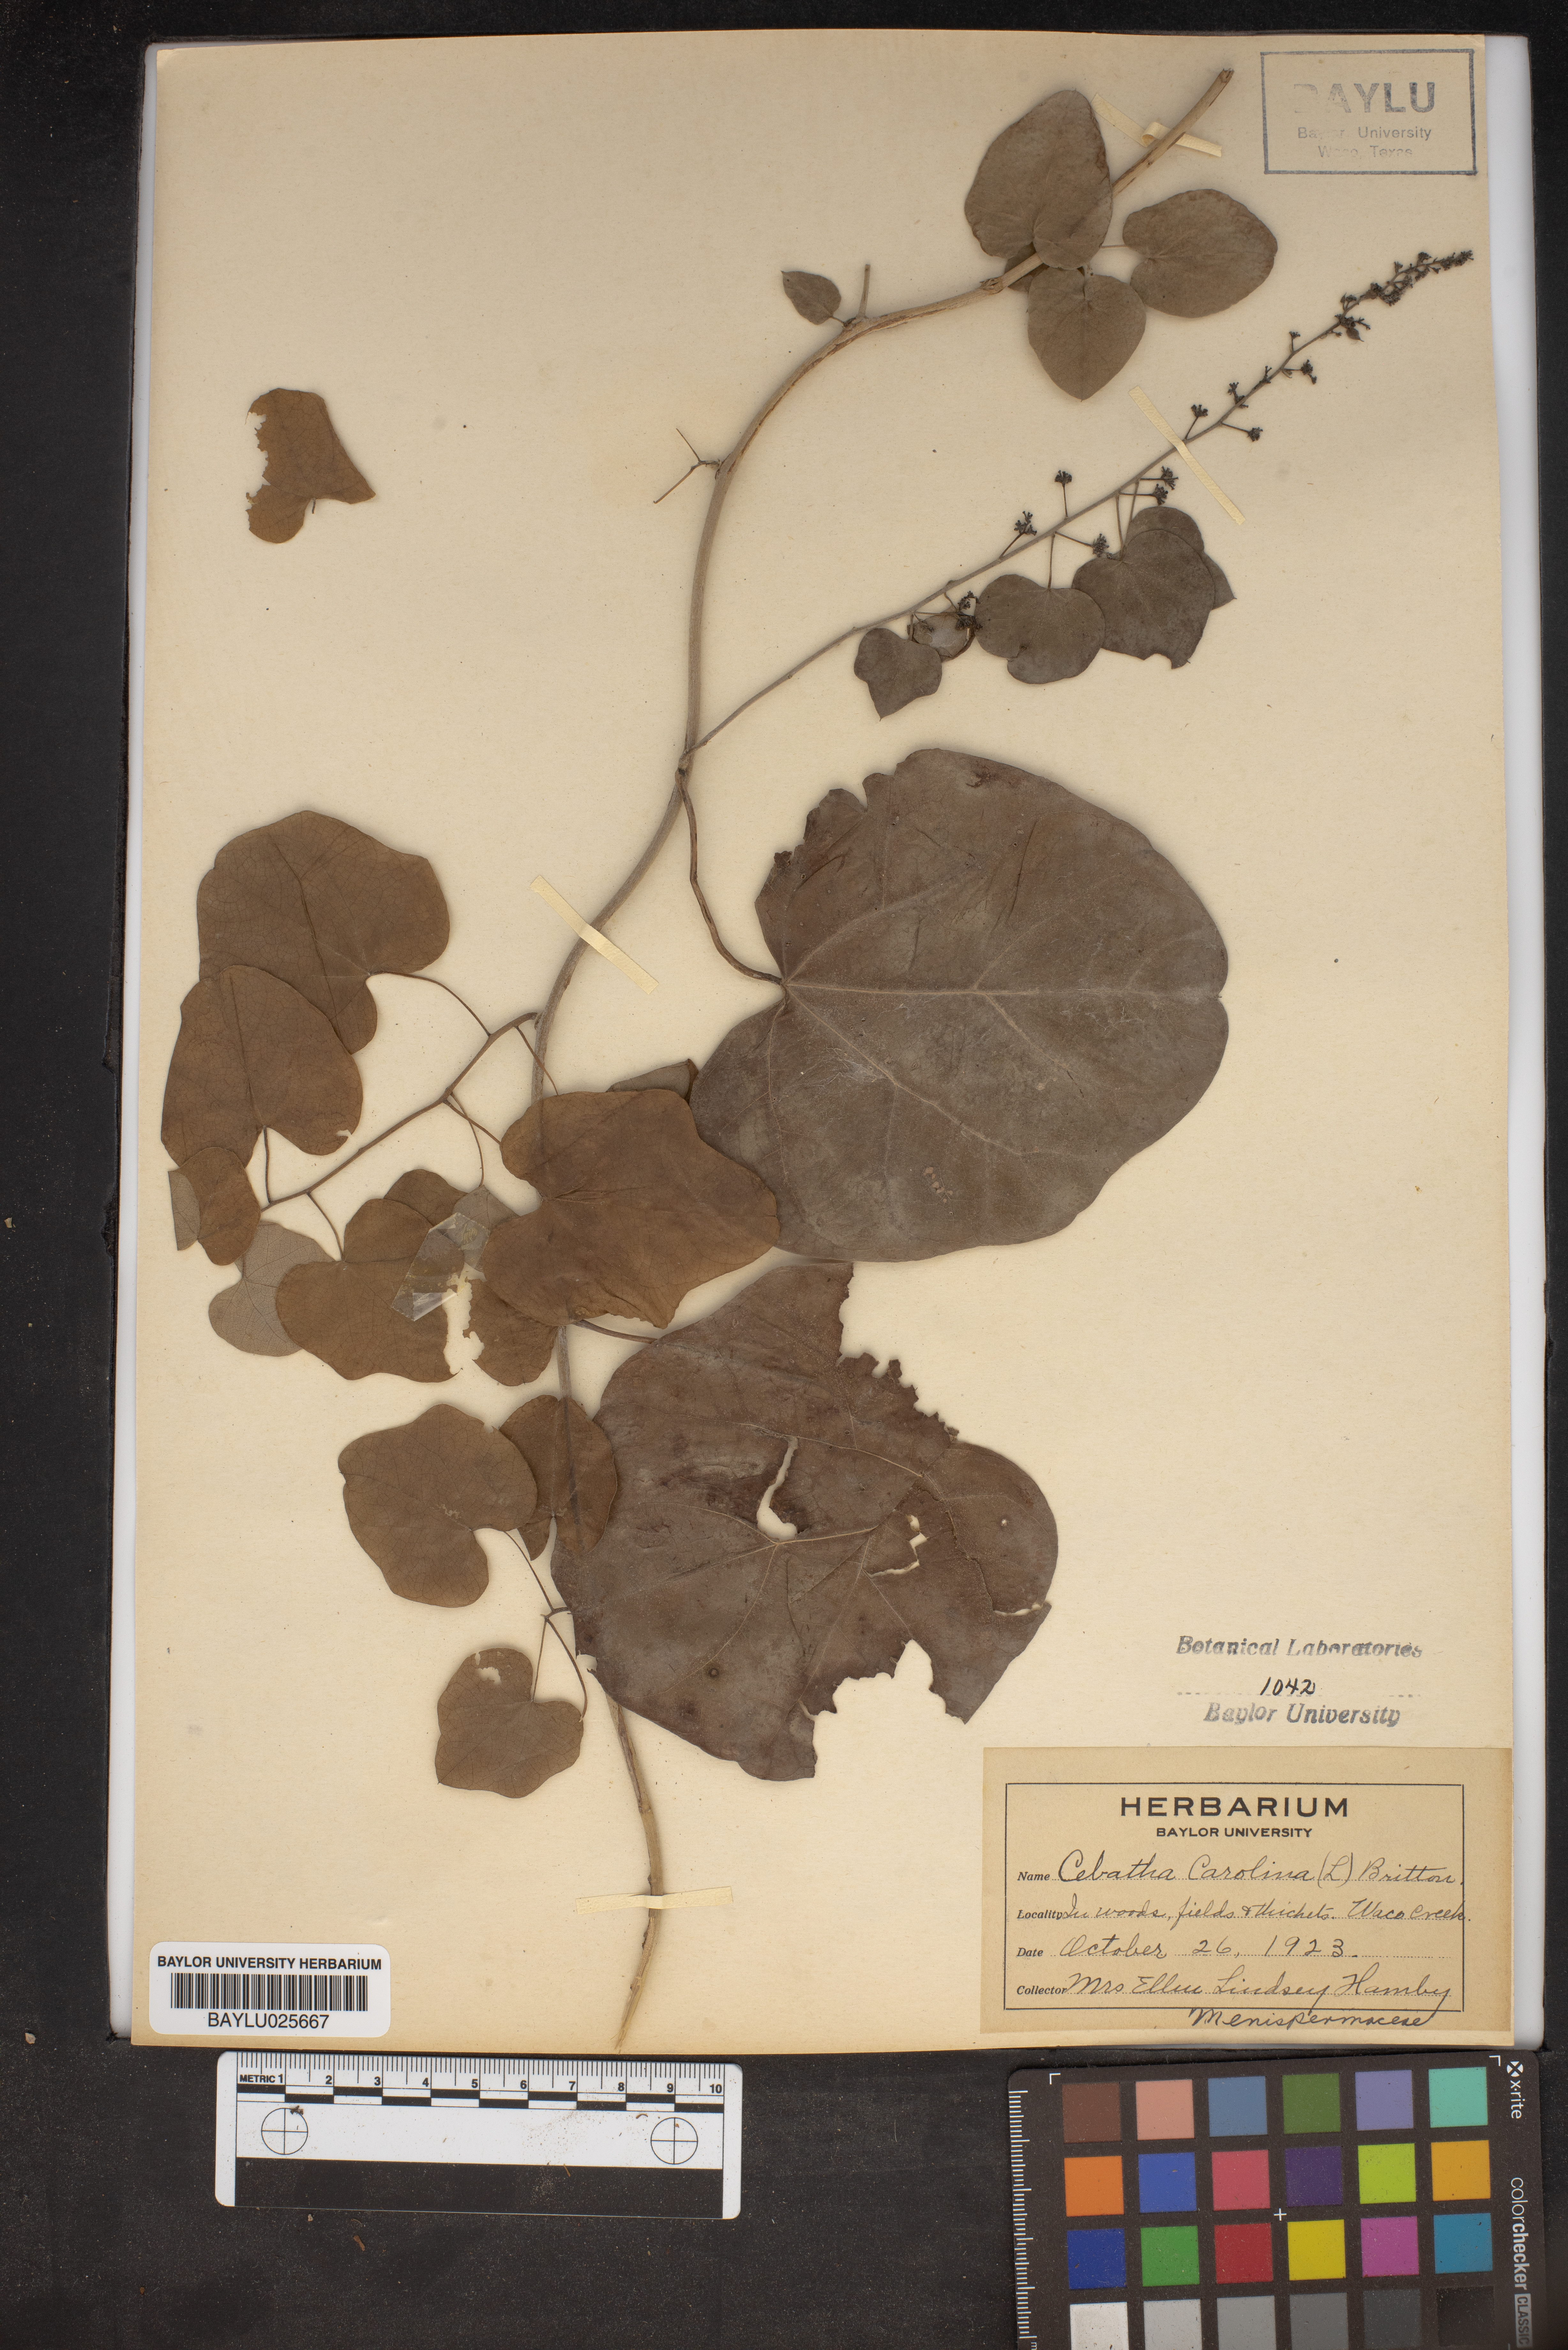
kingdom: Plantae
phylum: Tracheophyta
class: Magnoliopsida
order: Ranunculales
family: Menispermaceae
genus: Cocculus
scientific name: Cocculus carolinus
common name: Carolina moonseed
